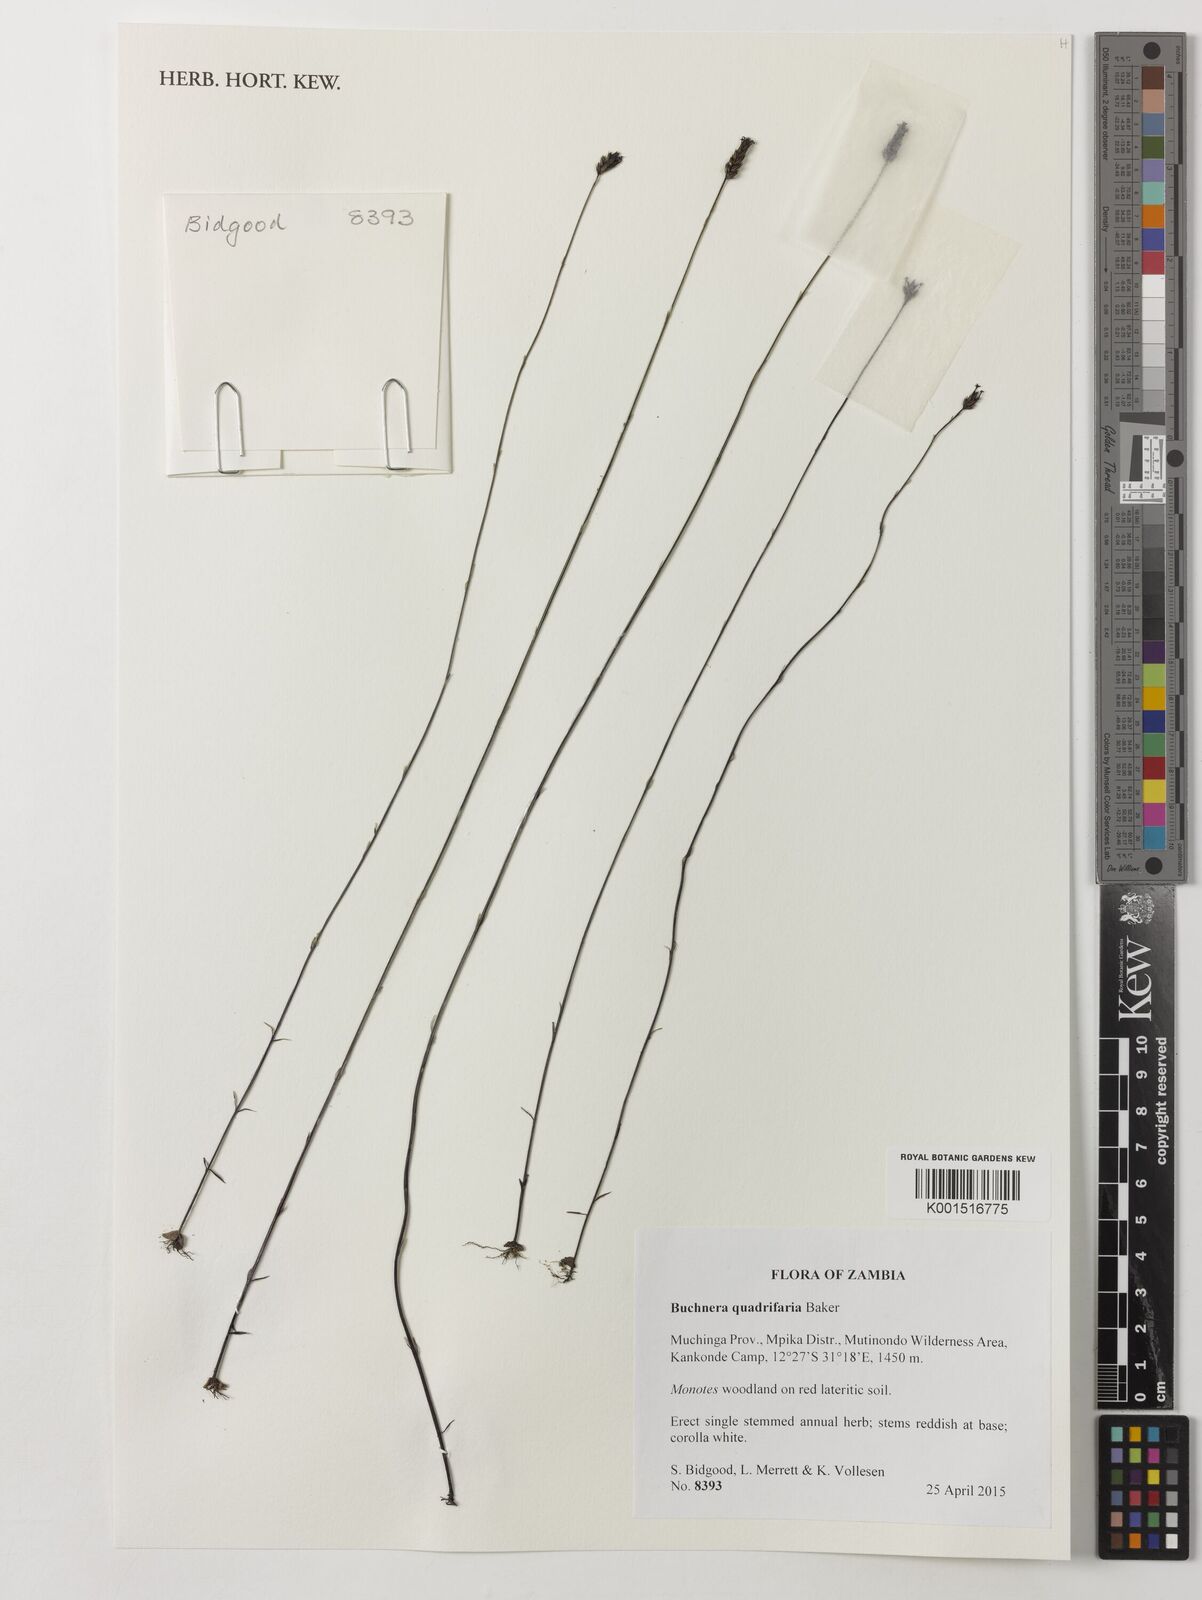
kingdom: Plantae
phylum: Tracheophyta
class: Magnoliopsida
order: Lamiales
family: Orobanchaceae
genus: Buchnera
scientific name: Buchnera quadrifaria
